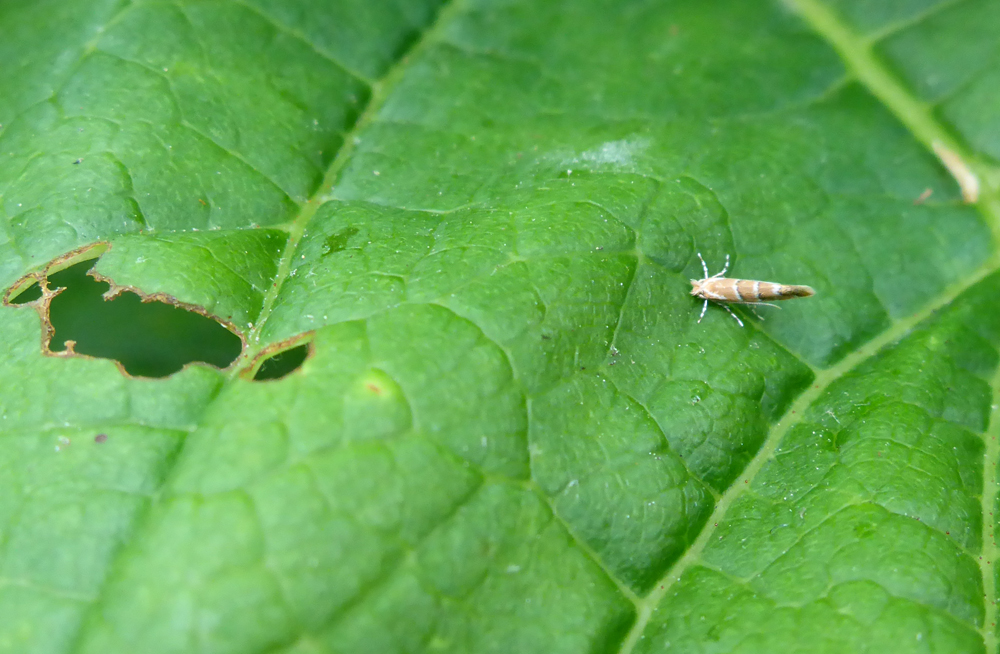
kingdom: Animalia
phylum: Arthropoda
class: Insecta
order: Lepidoptera
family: Gracillariidae
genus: Cameraria
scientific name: Cameraria ohridella
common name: Horse-chestnut leaf-miner
